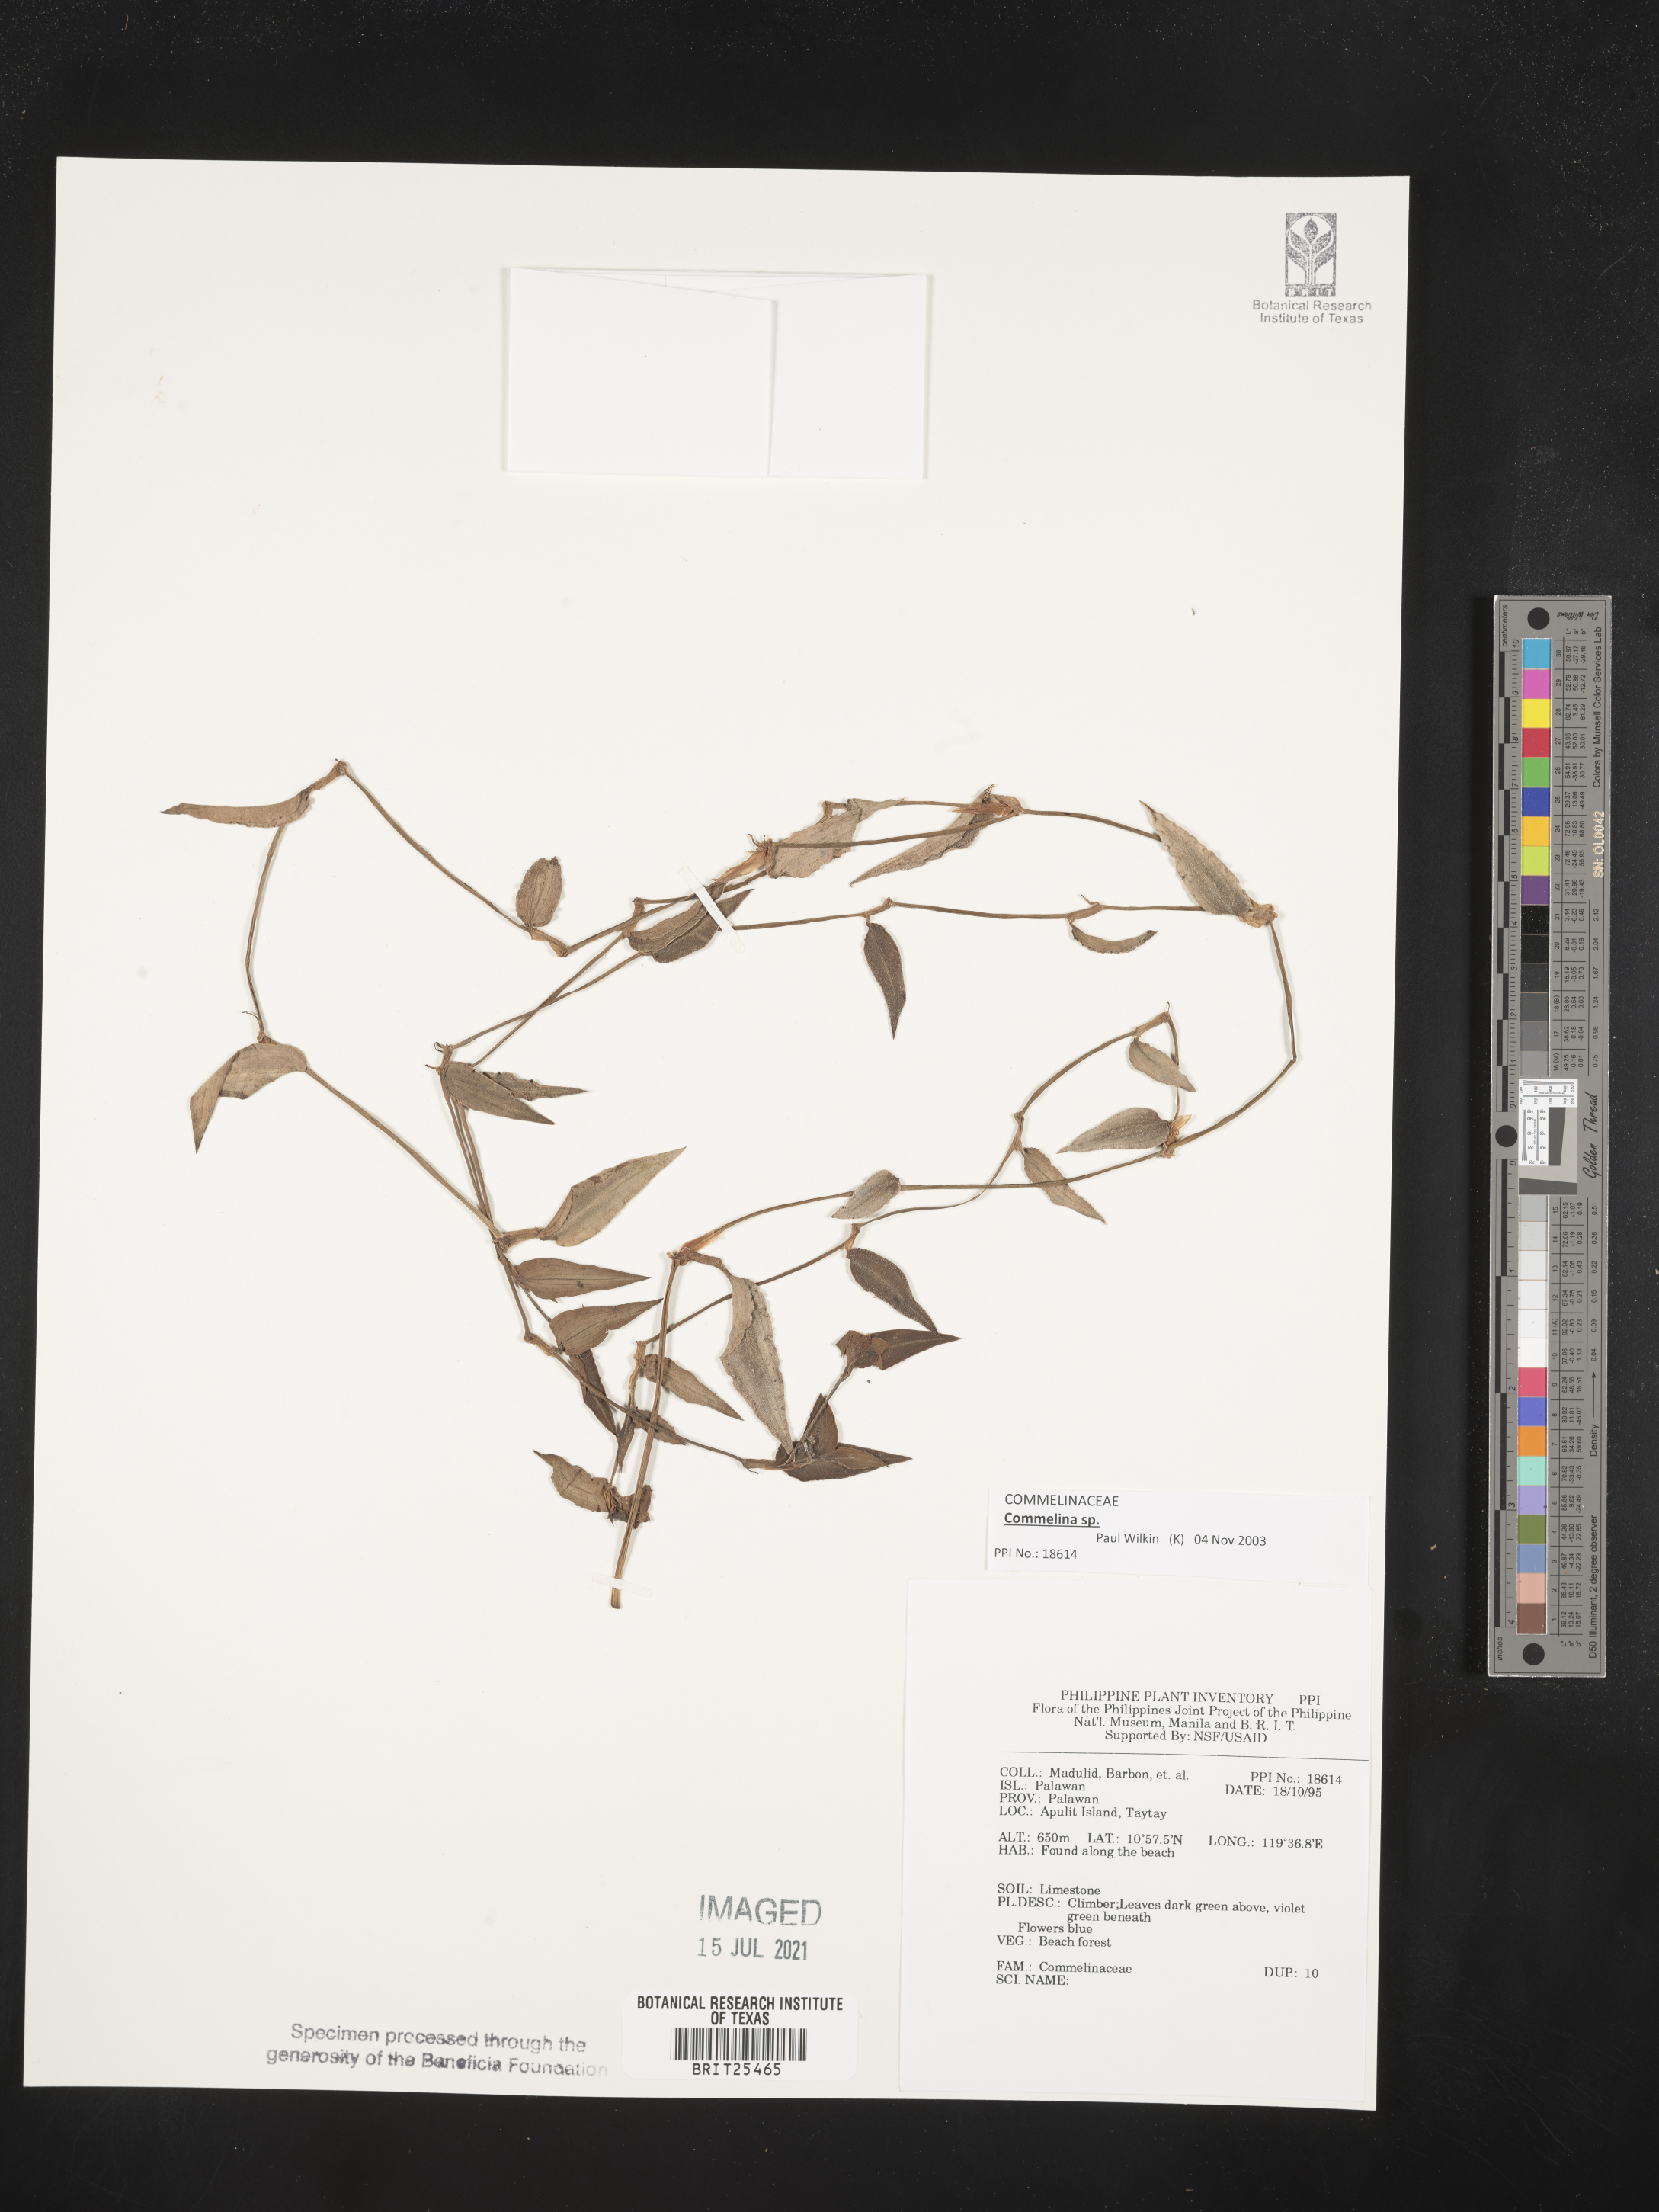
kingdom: Plantae
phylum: Tracheophyta
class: Liliopsida
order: Commelinales
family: Commelinaceae
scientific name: Commelinaceae
